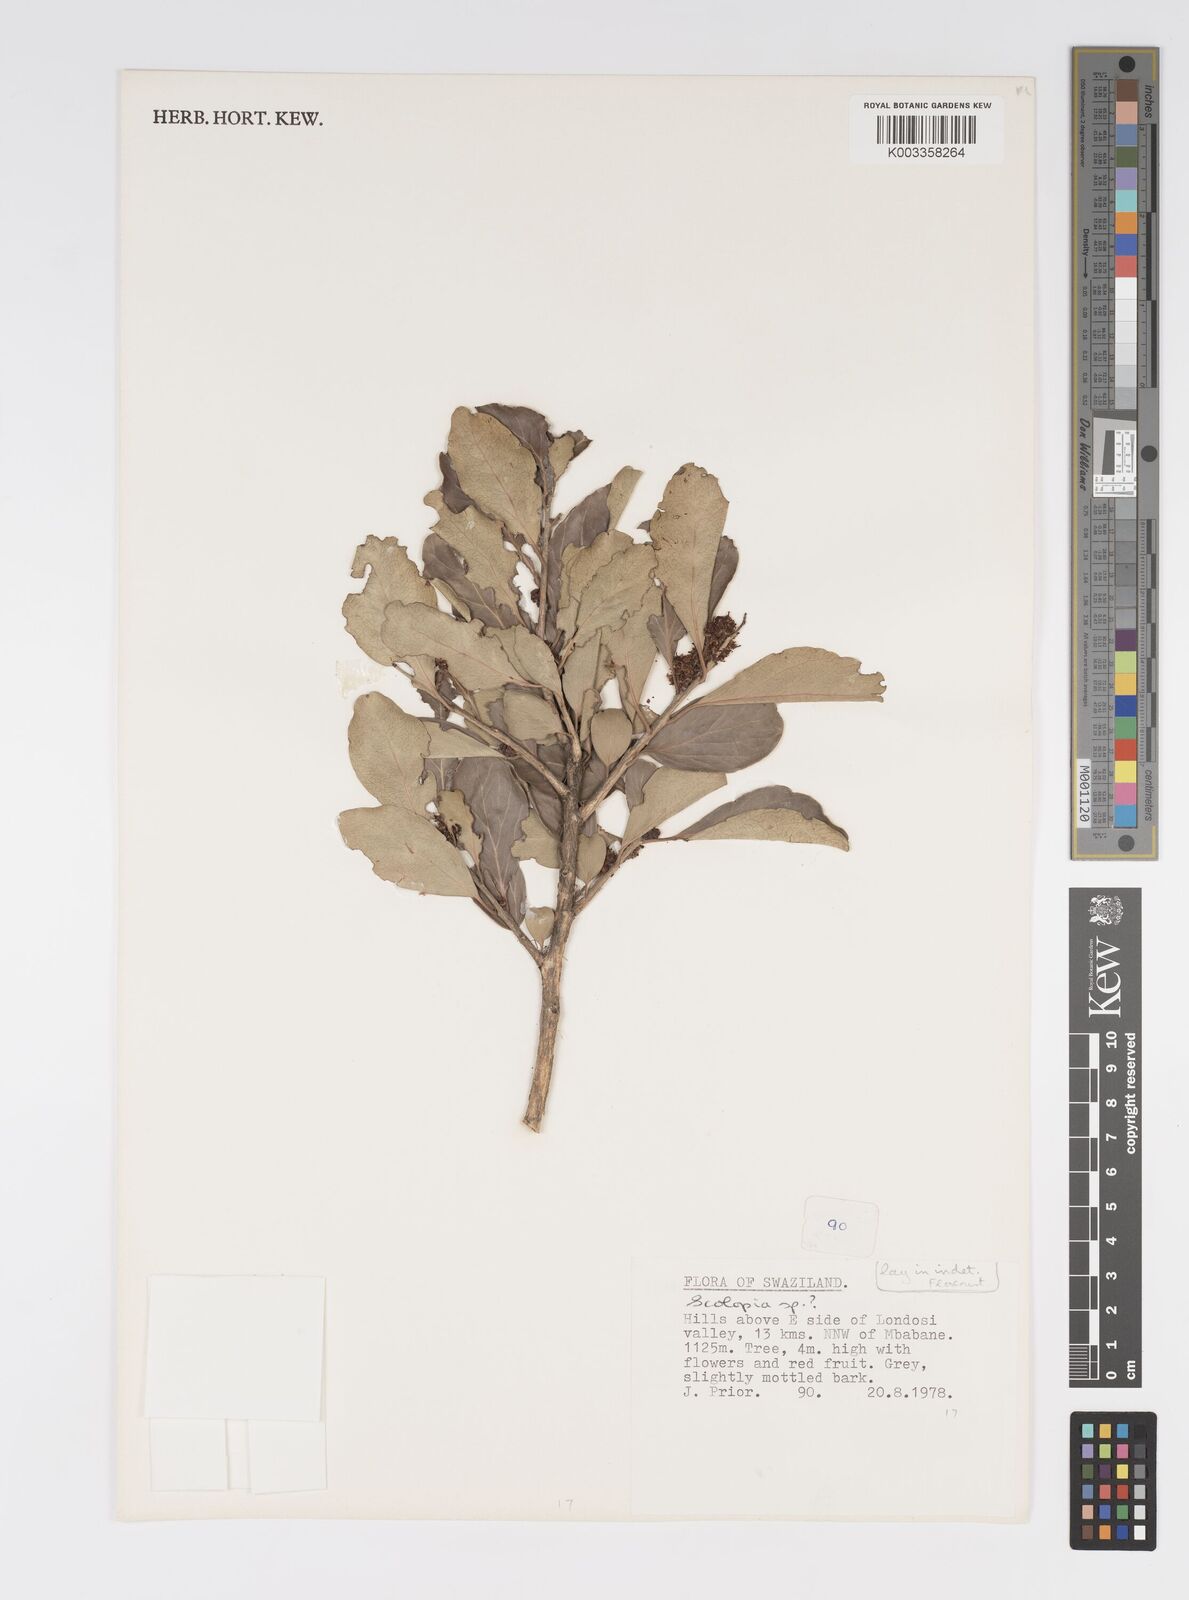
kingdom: Plantae
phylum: Tracheophyta
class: Magnoliopsida
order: Malpighiales
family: Salicaceae
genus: Scolopia
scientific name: Scolopia
